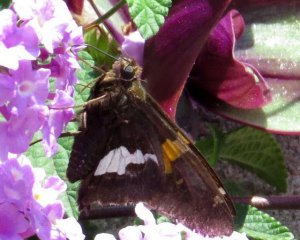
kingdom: Animalia
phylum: Arthropoda
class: Insecta
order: Lepidoptera
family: Hesperiidae
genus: Epargyreus
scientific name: Epargyreus clarus
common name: Silver-spotted Skipper
